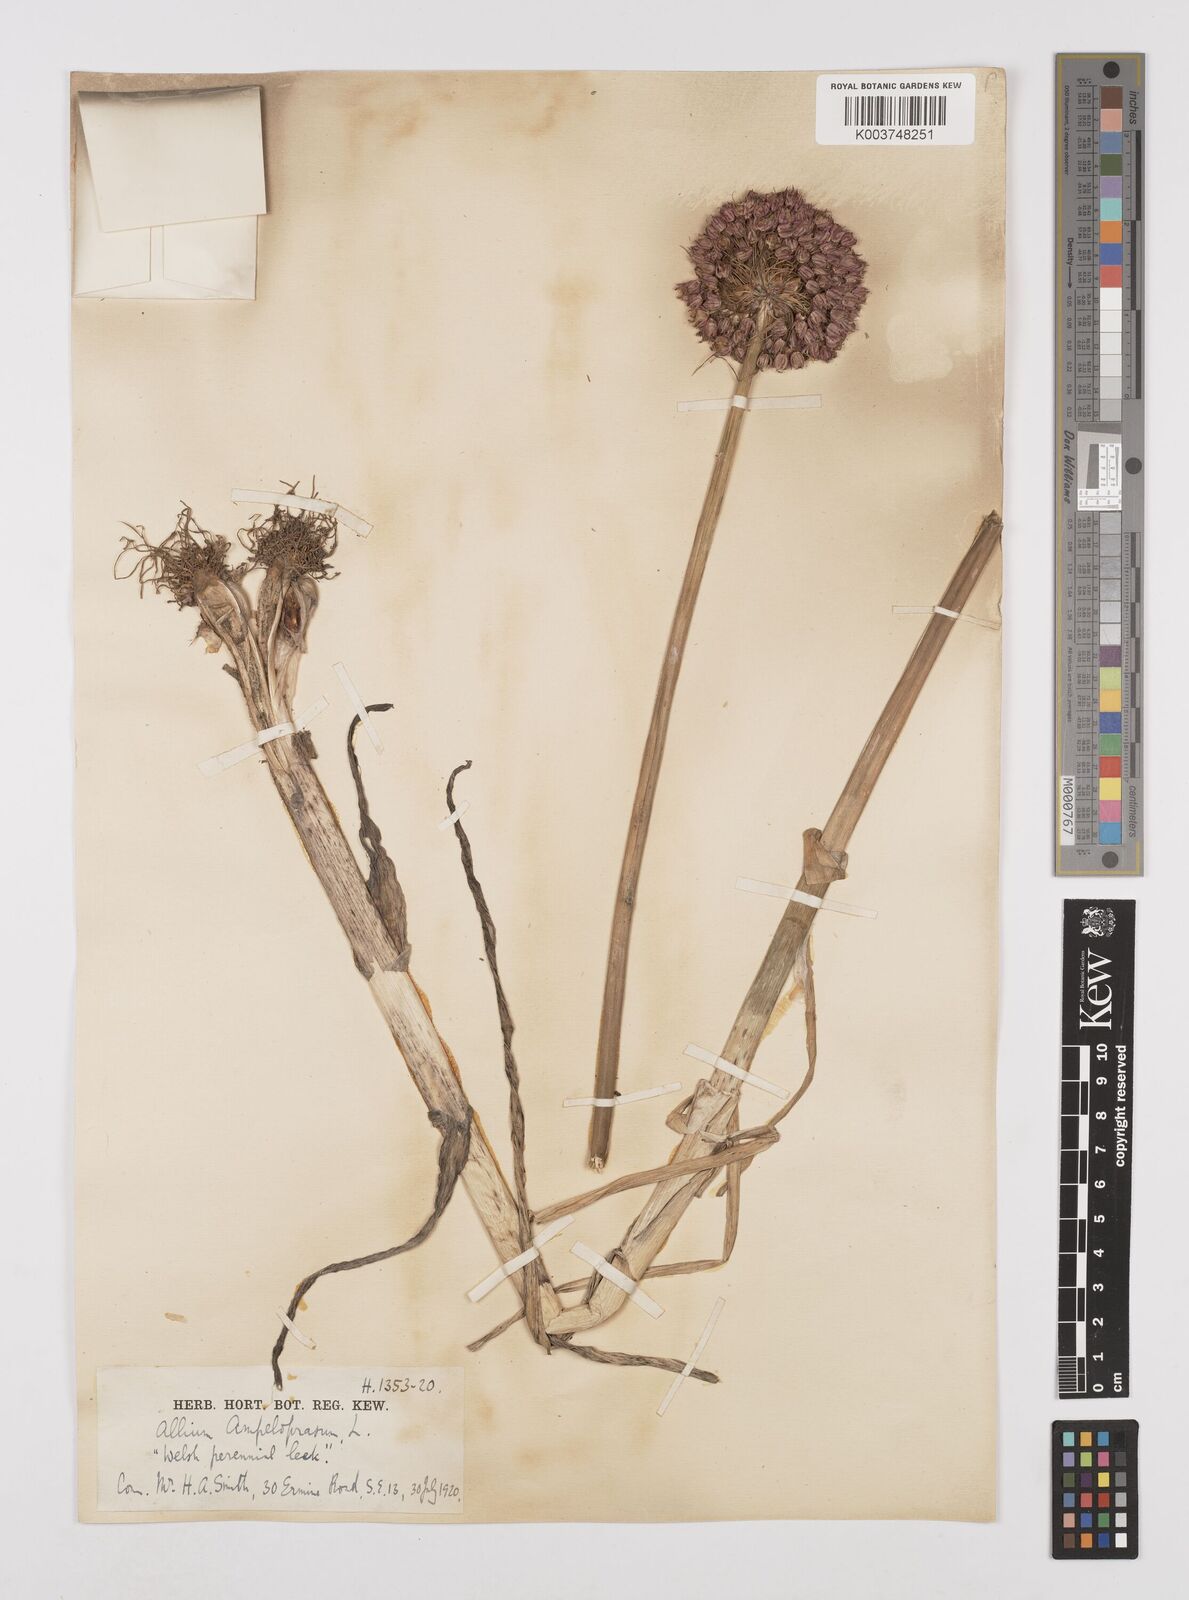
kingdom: Plantae
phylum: Tracheophyta
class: Liliopsida
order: Asparagales
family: Amaryllidaceae
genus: Allium
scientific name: Allium ampeloprasum
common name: Wild leek
